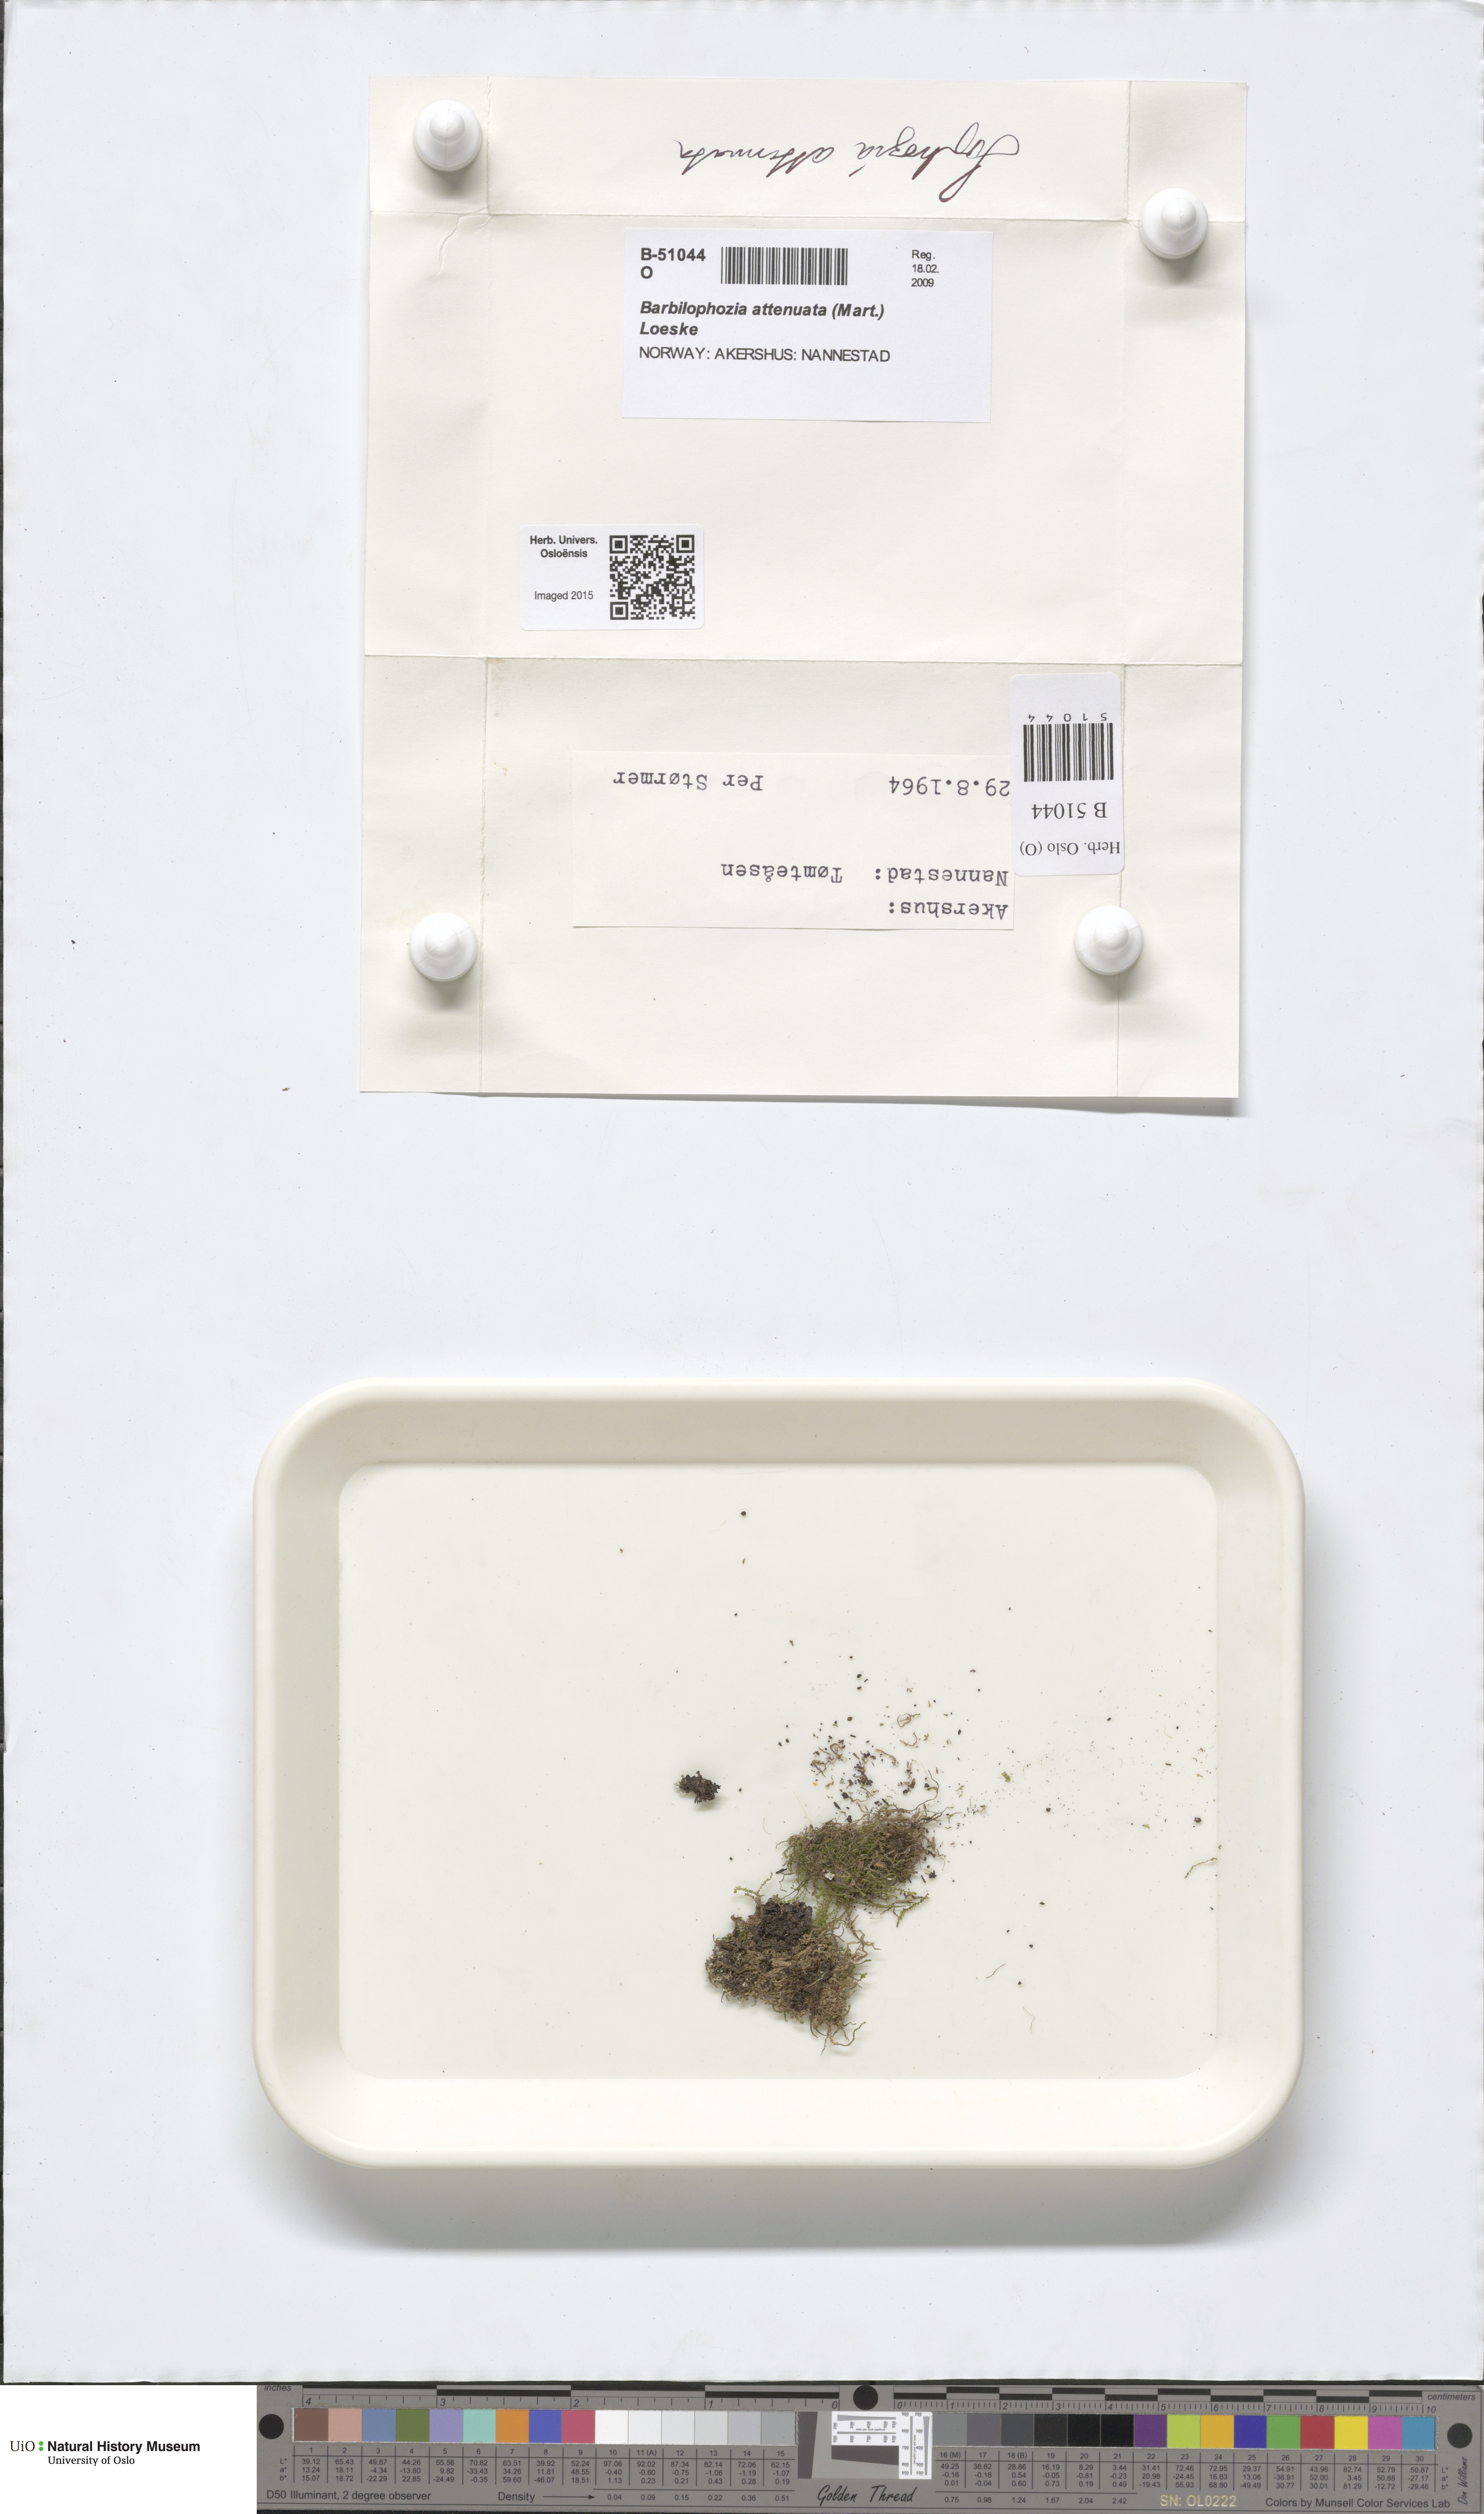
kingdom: Plantae
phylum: Marchantiophyta
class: Jungermanniopsida
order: Jungermanniales
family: Anastrophyllaceae
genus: Neoorthocaulis
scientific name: Neoorthocaulis attenuatus
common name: Trunk pawwort
